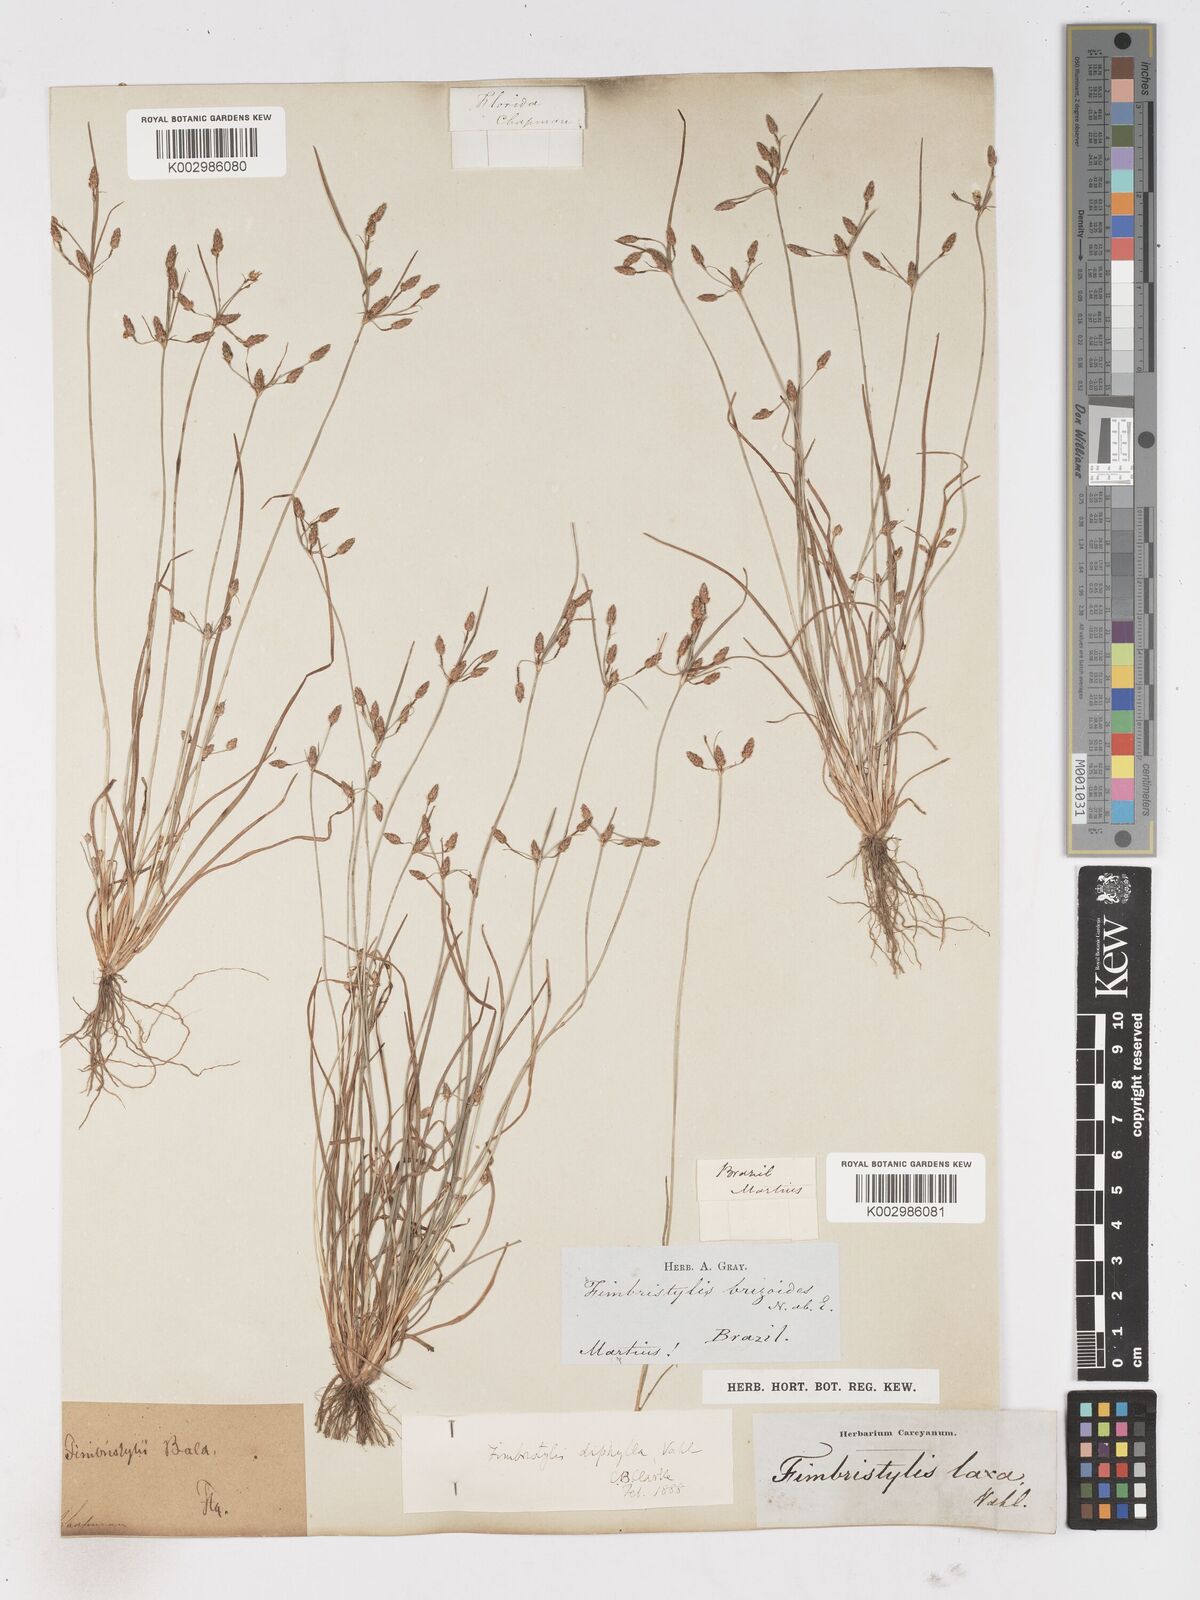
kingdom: Plantae
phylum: Tracheophyta
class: Liliopsida
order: Poales
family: Cyperaceae
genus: Fimbristylis
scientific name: Fimbristylis dichotoma
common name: Forked fimbry
